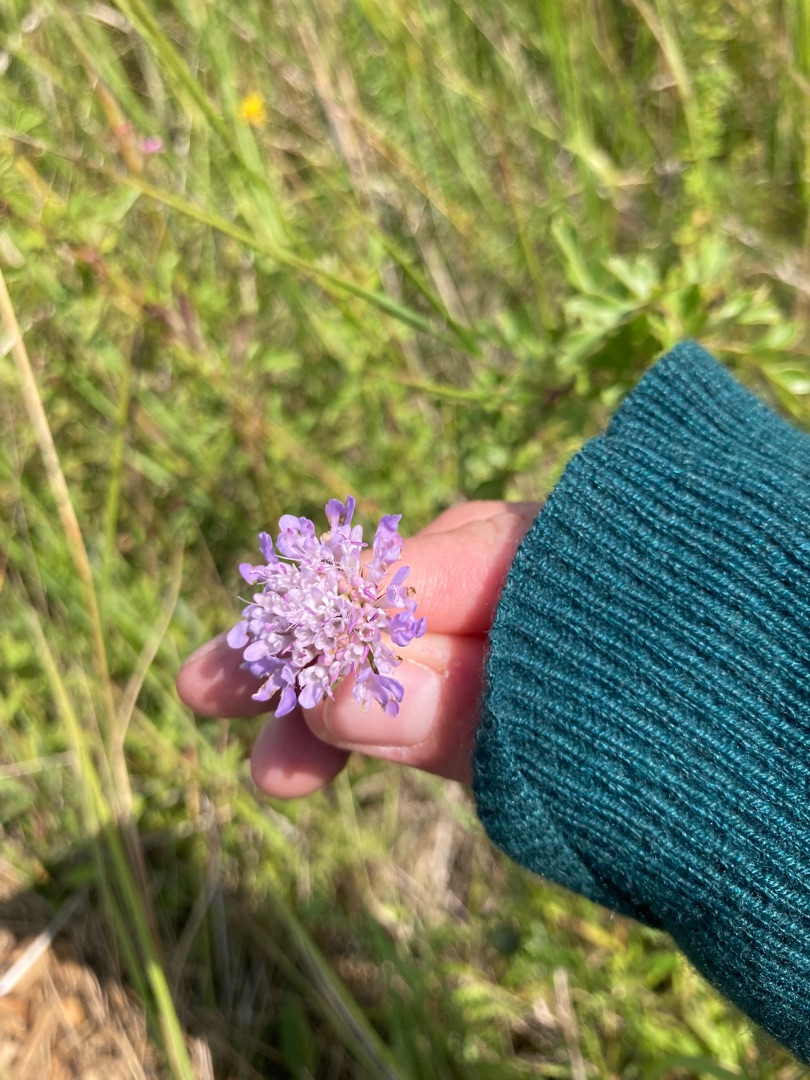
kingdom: Plantae
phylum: Tracheophyta
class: Magnoliopsida
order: Dipsacales
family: Caprifoliaceae
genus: Scabiosa
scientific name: Scabiosa columbaria
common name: Due-skabiose
